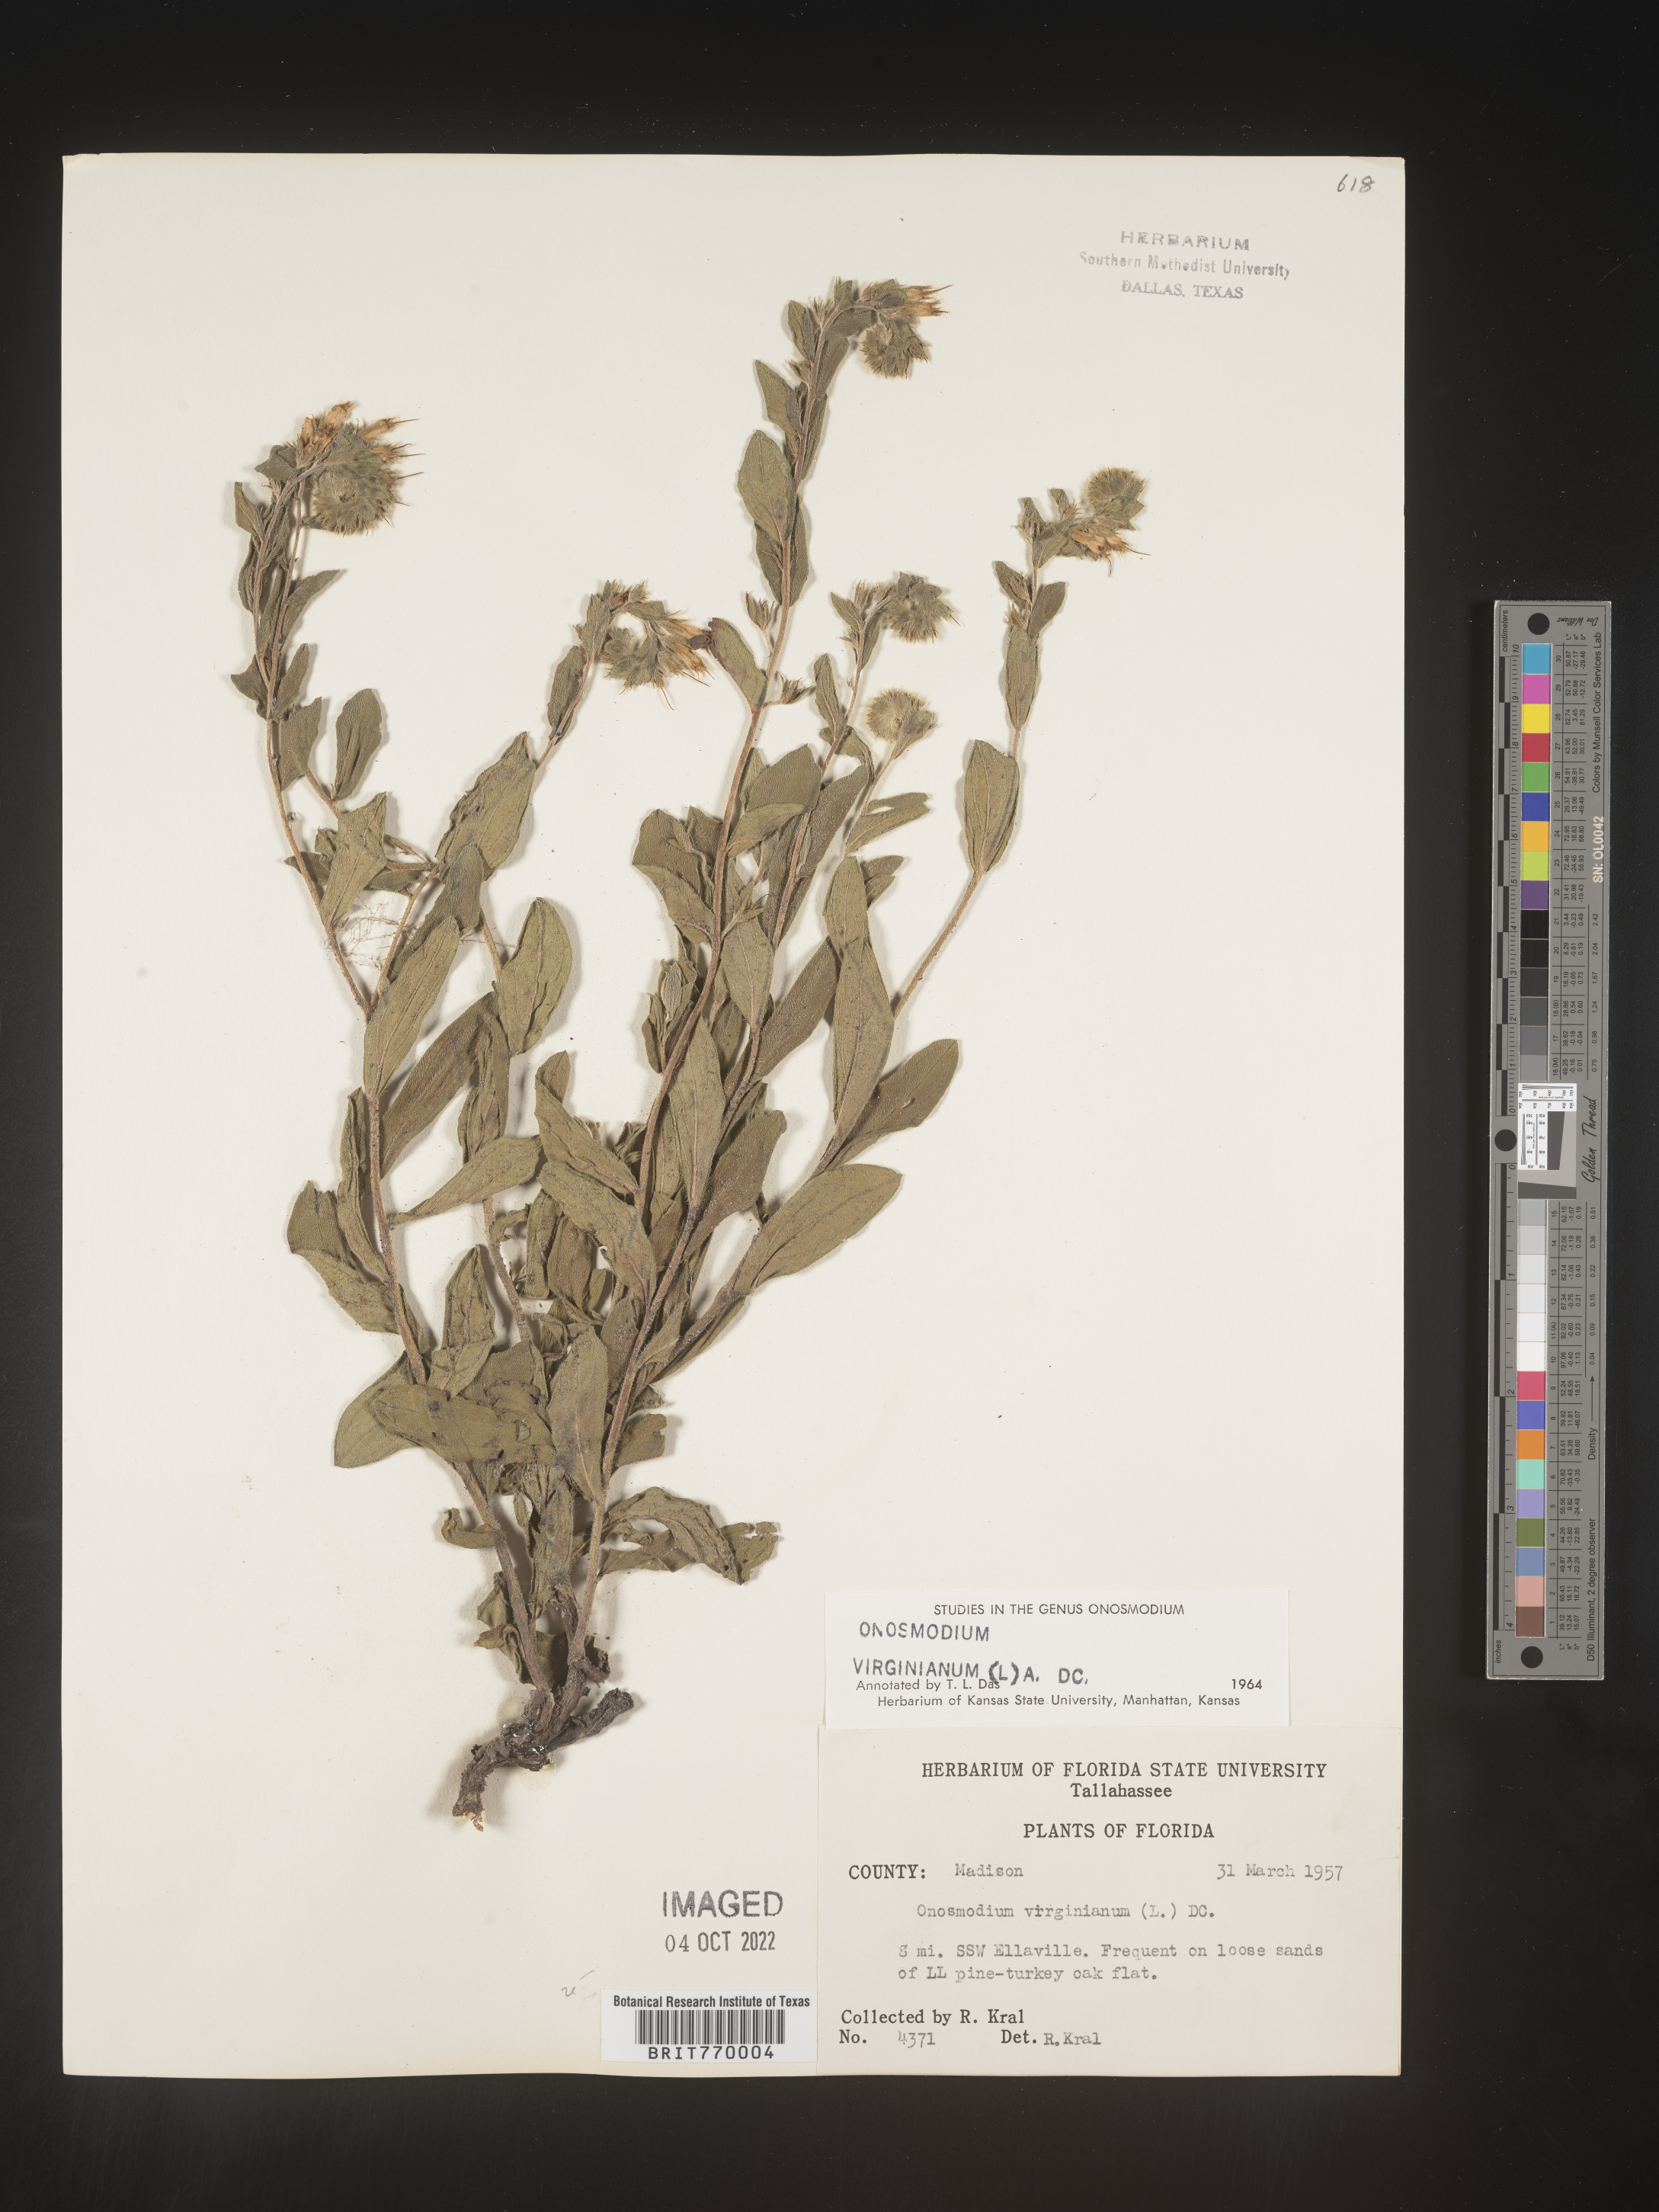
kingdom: Plantae
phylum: Tracheophyta
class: Magnoliopsida
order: Boraginales
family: Boraginaceae
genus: Lithospermum
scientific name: Lithospermum virginianum
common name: Eastern false gromwell
